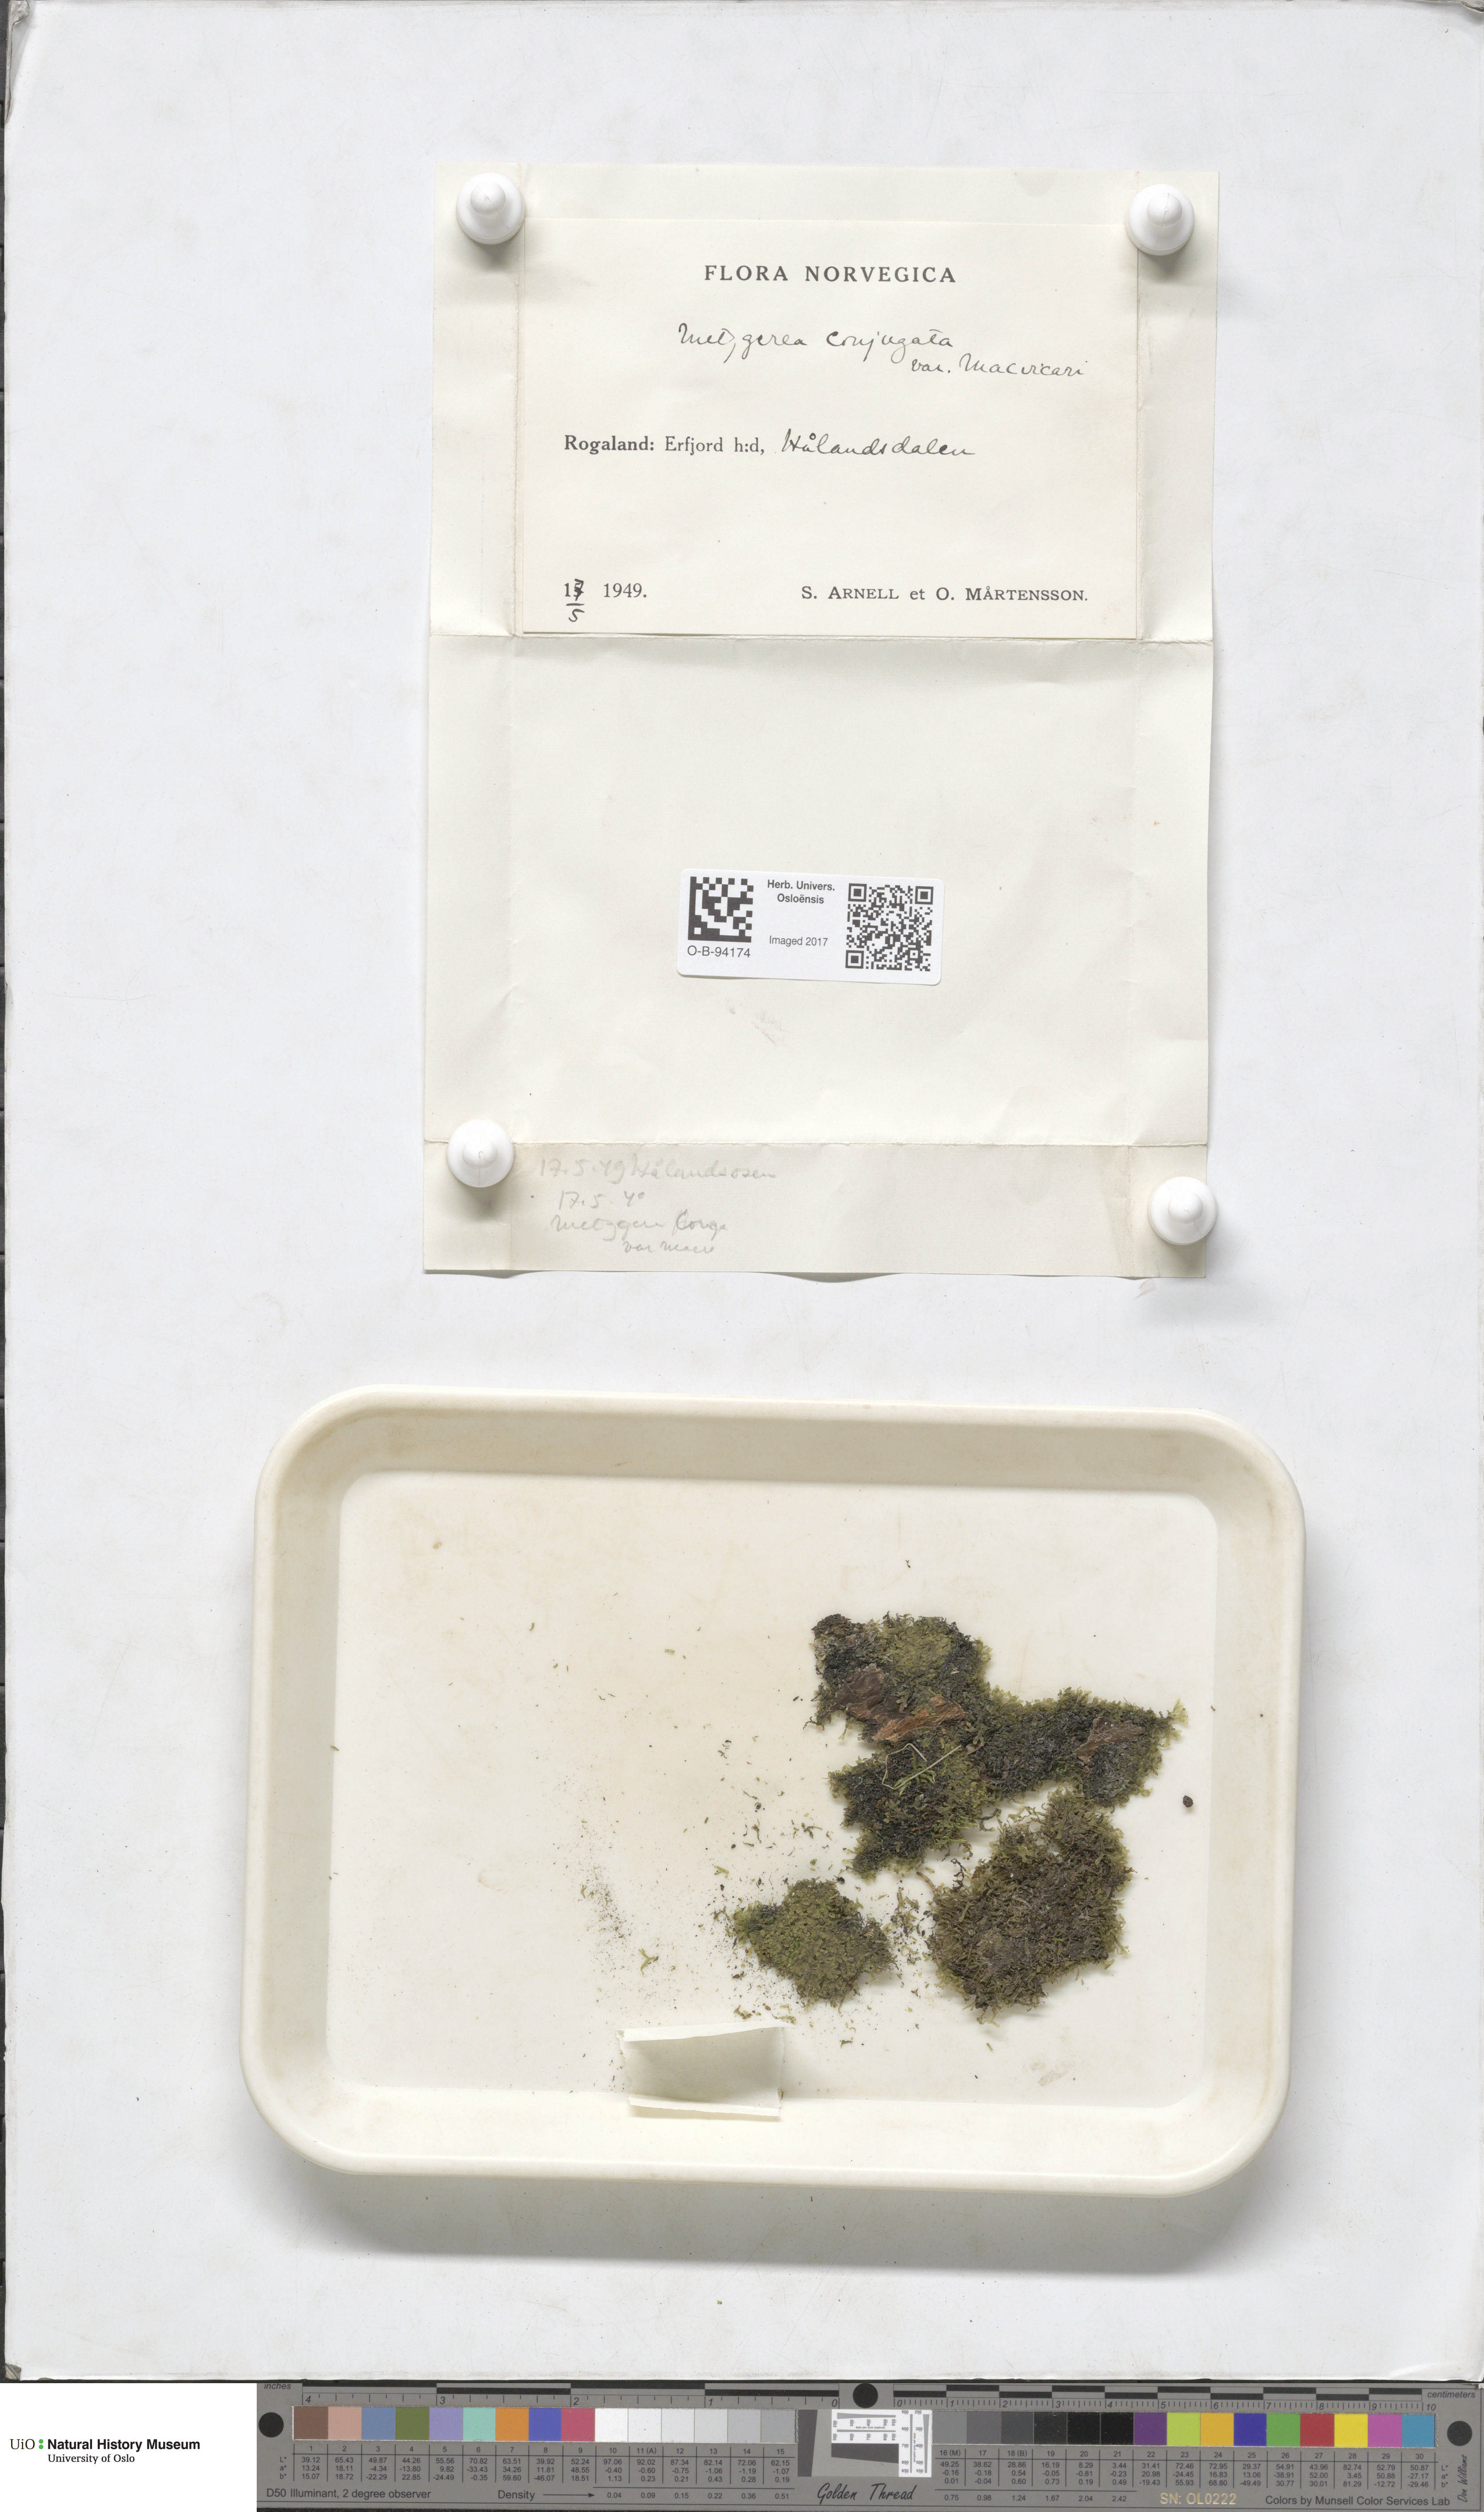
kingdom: Plantae
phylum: Marchantiophyta
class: Jungermanniopsida
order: Metzgeriales
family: Metzgeriaceae
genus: Metzgeria
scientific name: Metzgeria conjugata
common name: Rock veilwort
